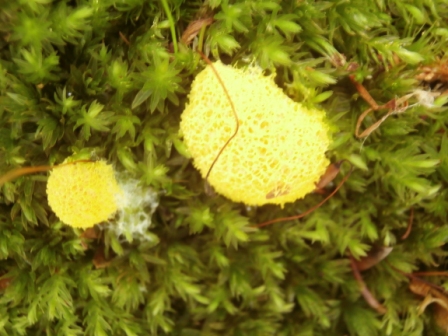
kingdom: Protozoa
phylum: Mycetozoa
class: Myxomycetes
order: Physarales
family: Physaraceae
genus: Fuligo
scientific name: Fuligo septica
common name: gul troldsmør
